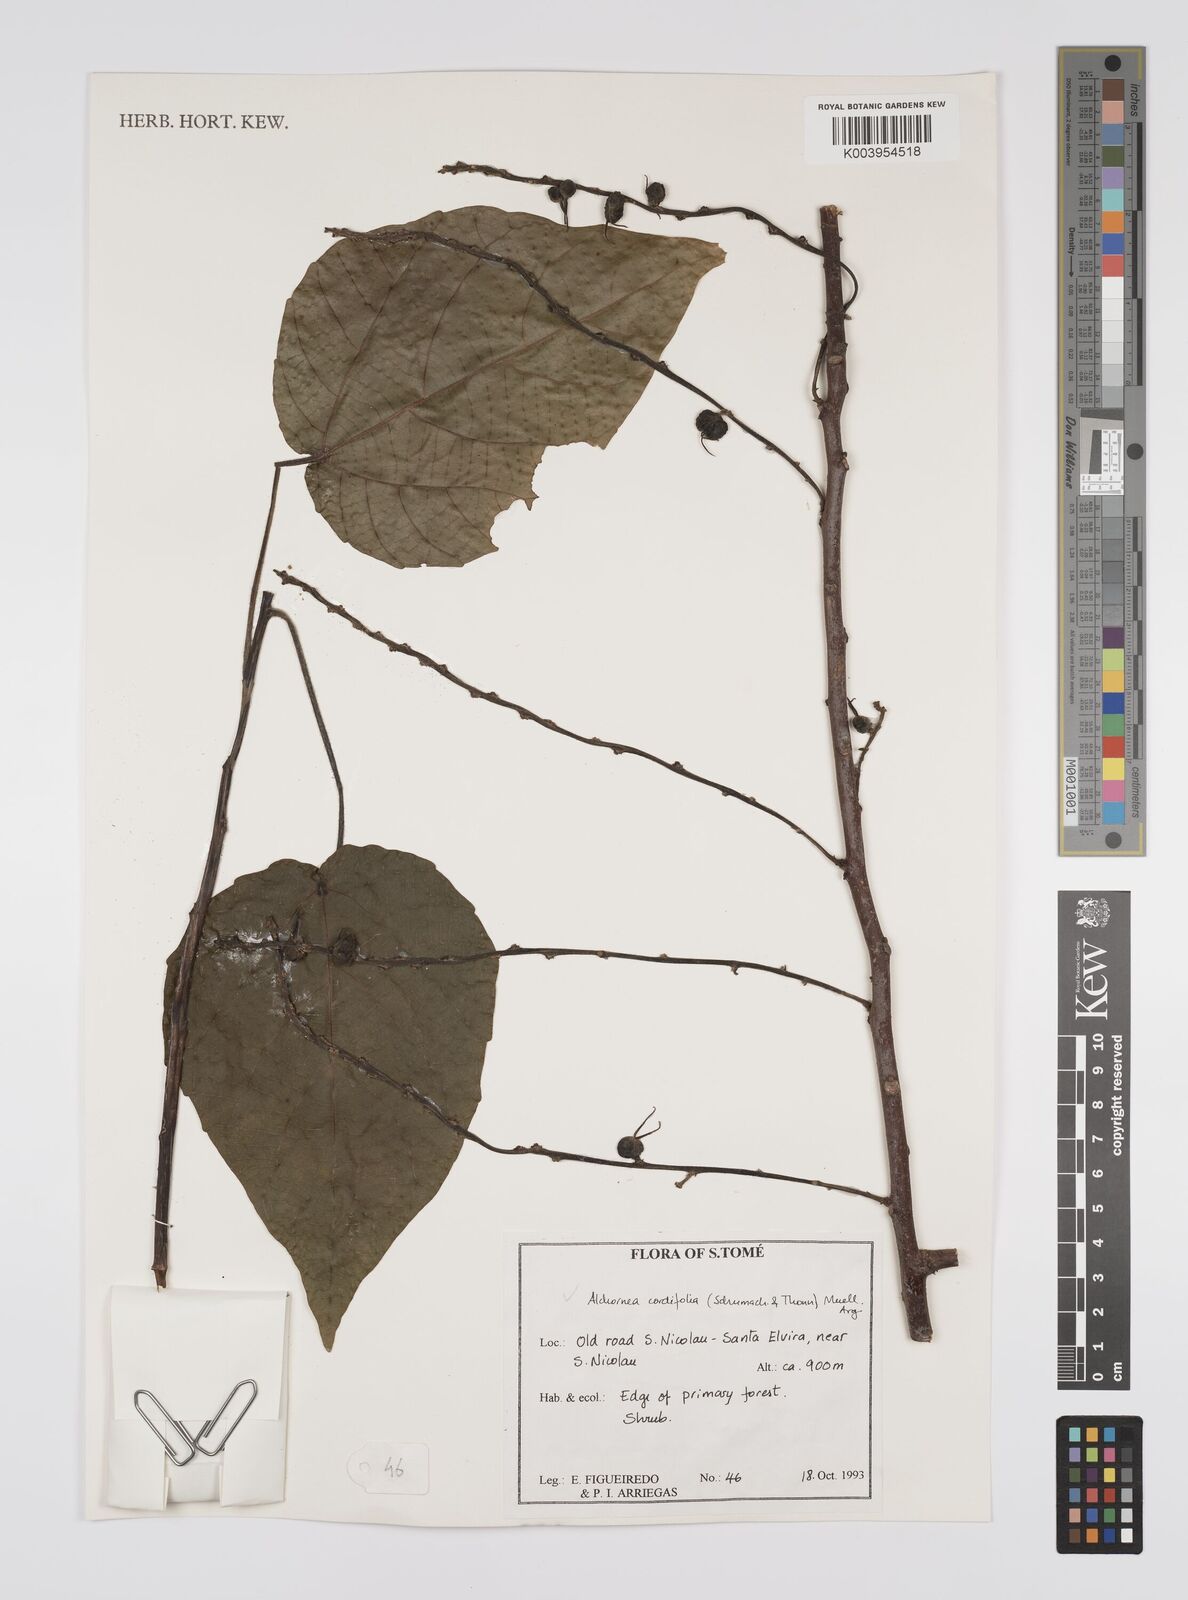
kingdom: Plantae
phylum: Tracheophyta
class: Magnoliopsida
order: Malpighiales
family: Euphorbiaceae
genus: Alchornea
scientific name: Alchornea cordifolia
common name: Christmasbush
